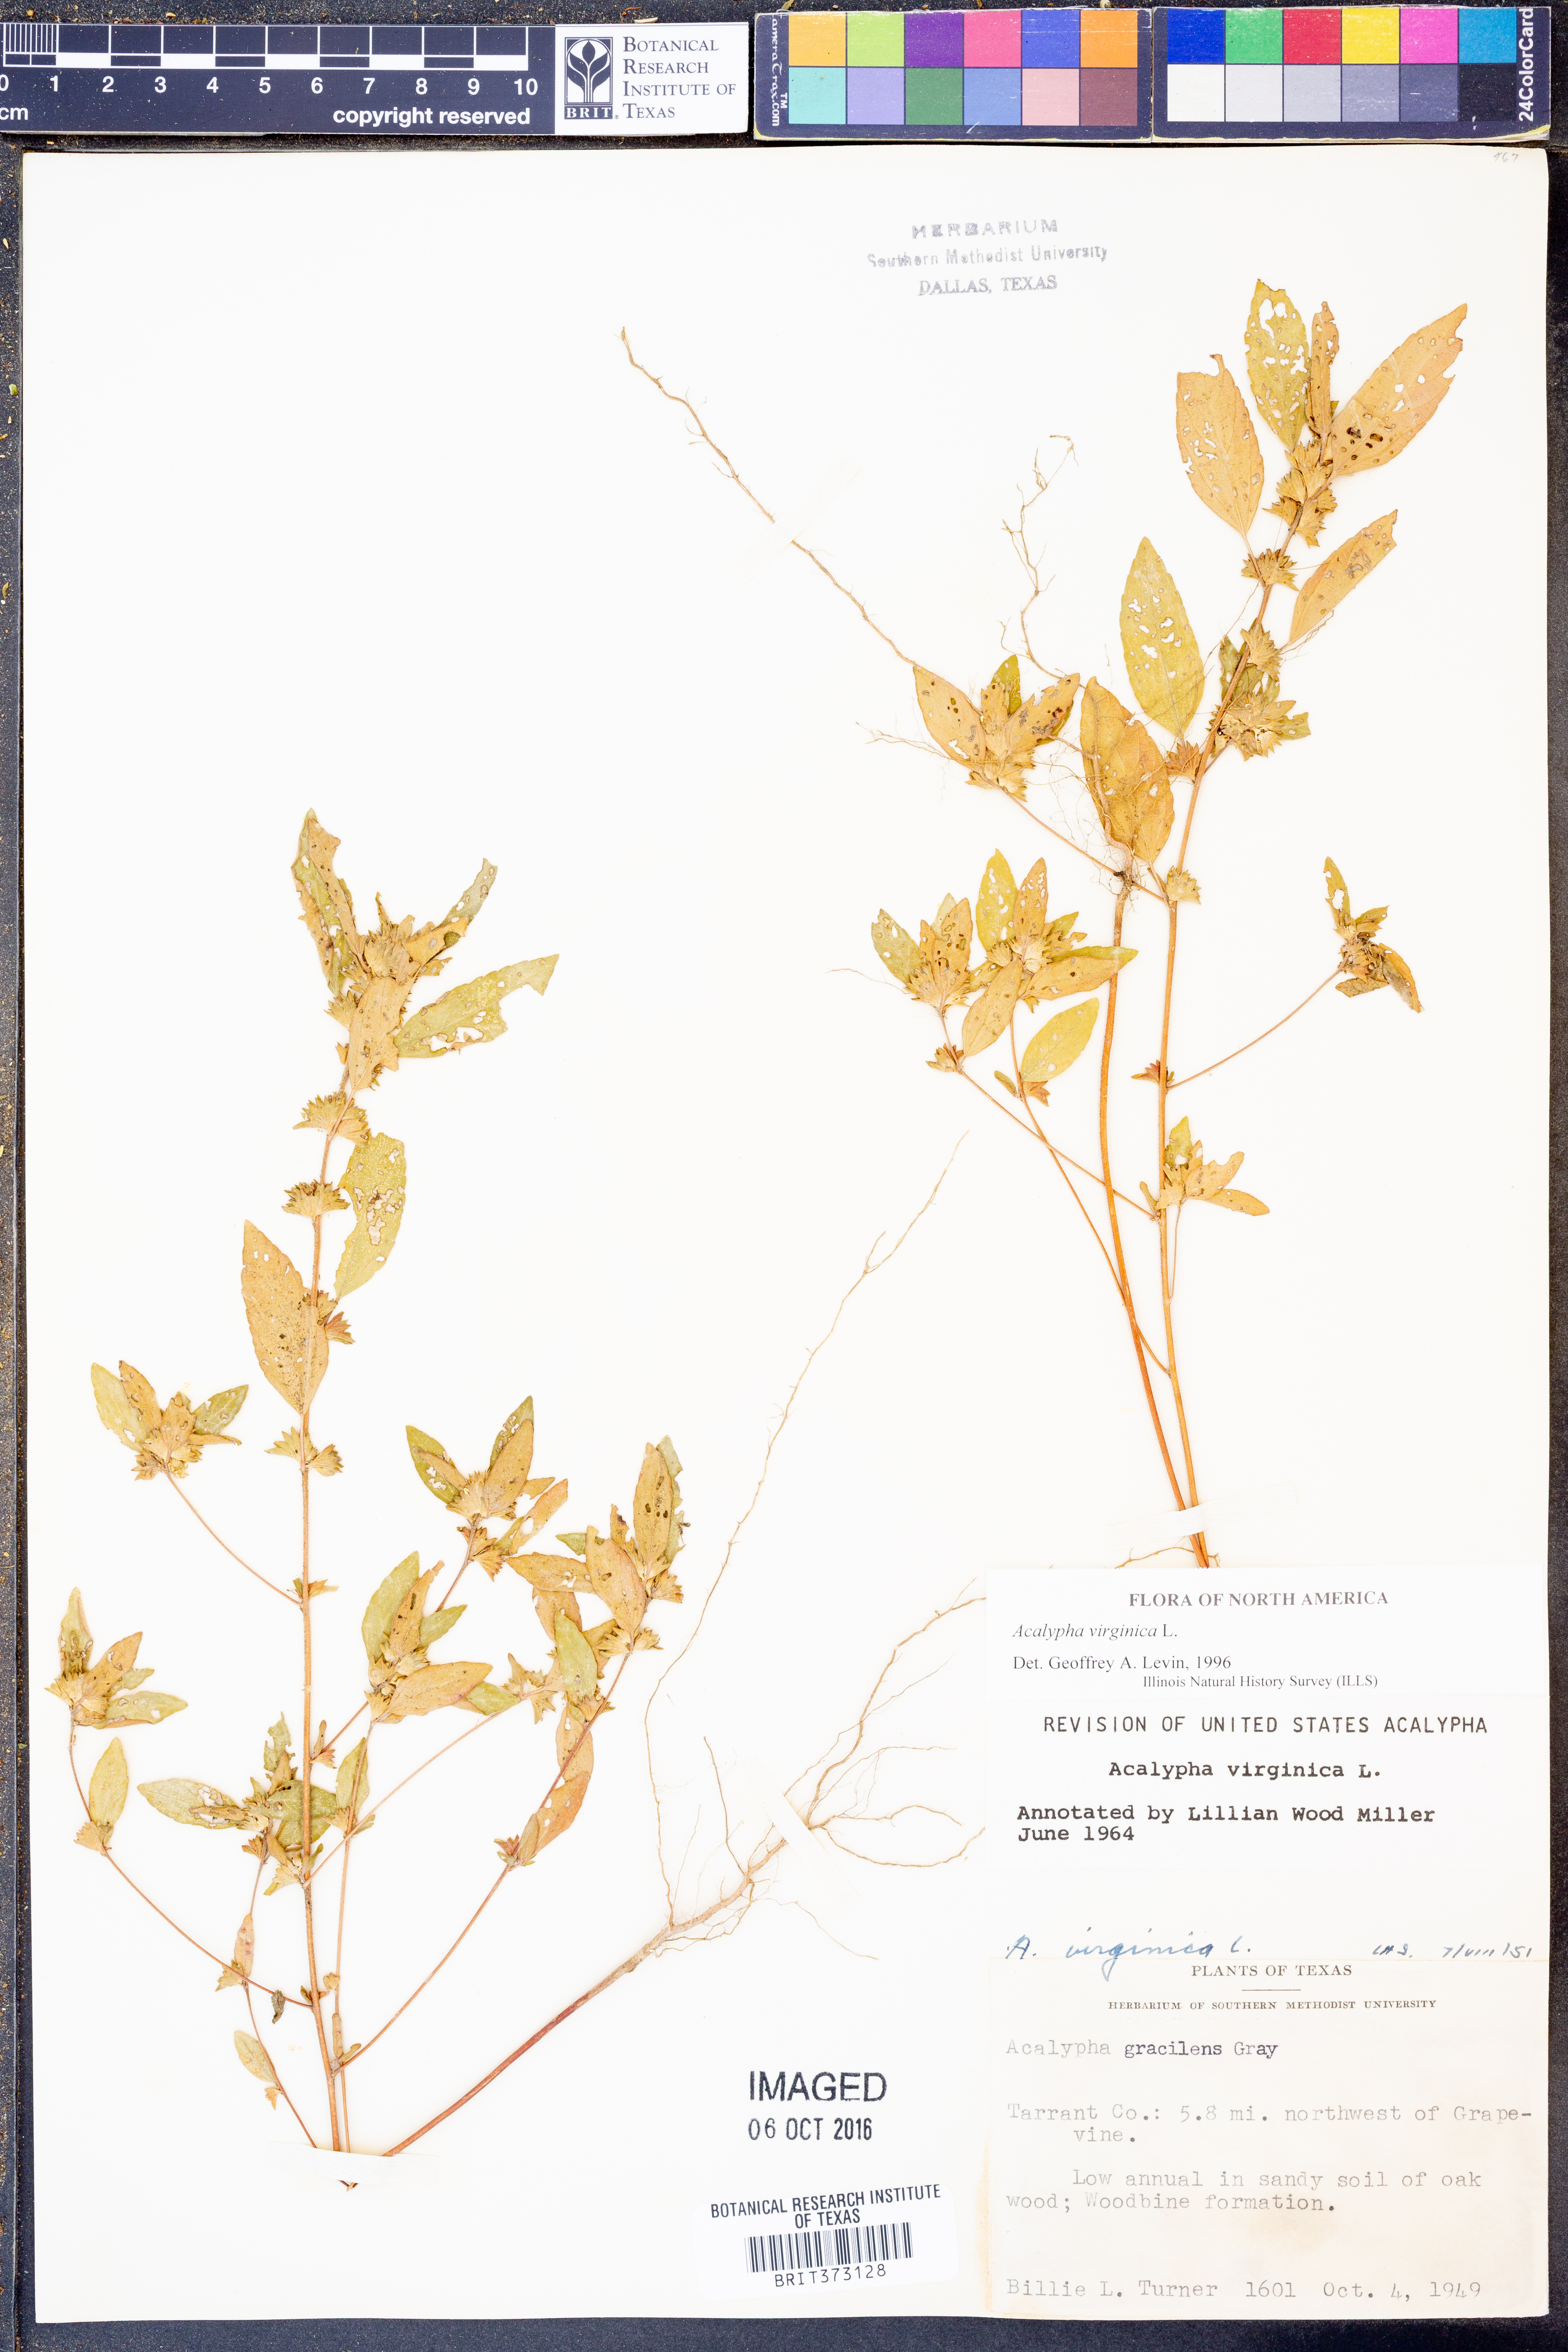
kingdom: Plantae
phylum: Tracheophyta
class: Magnoliopsida
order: Malpighiales
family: Euphorbiaceae
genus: Acalypha
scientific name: Acalypha virginica
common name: Virginia copperleaf
